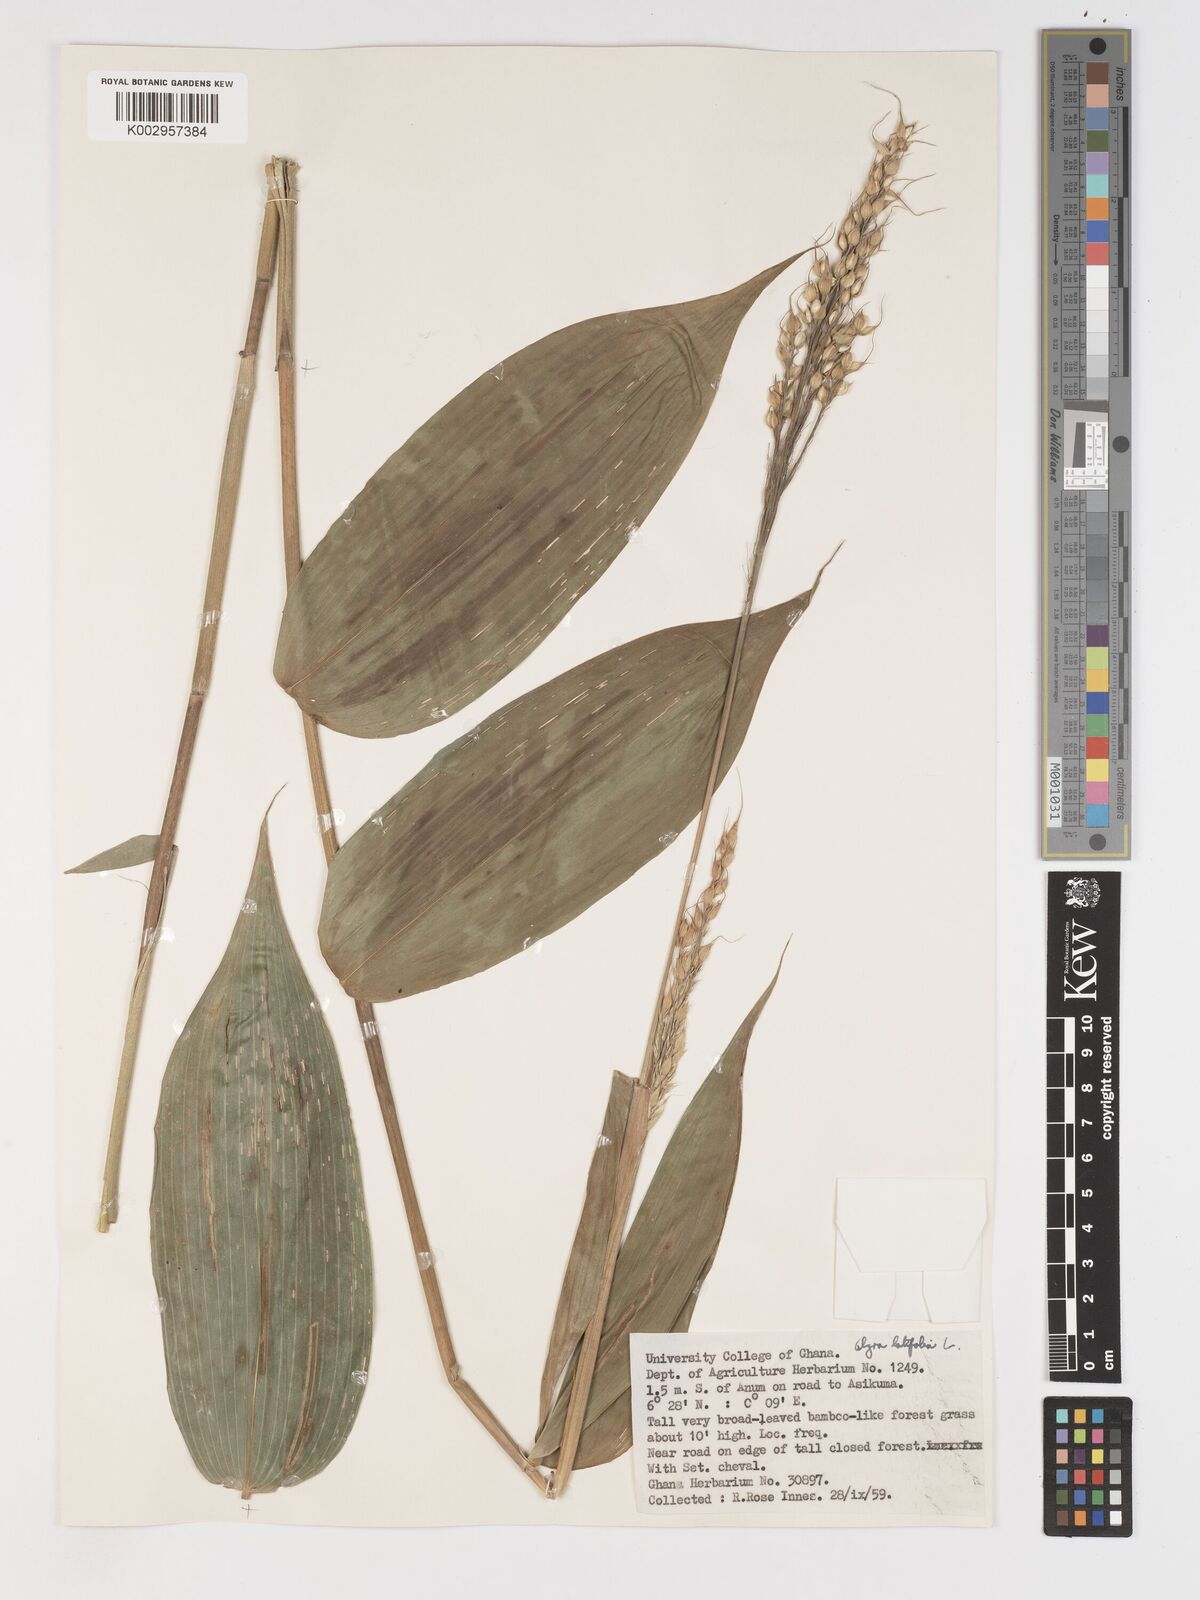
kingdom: Plantae
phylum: Tracheophyta
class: Liliopsida
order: Poales
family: Poaceae
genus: Olyra
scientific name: Olyra latifolia
